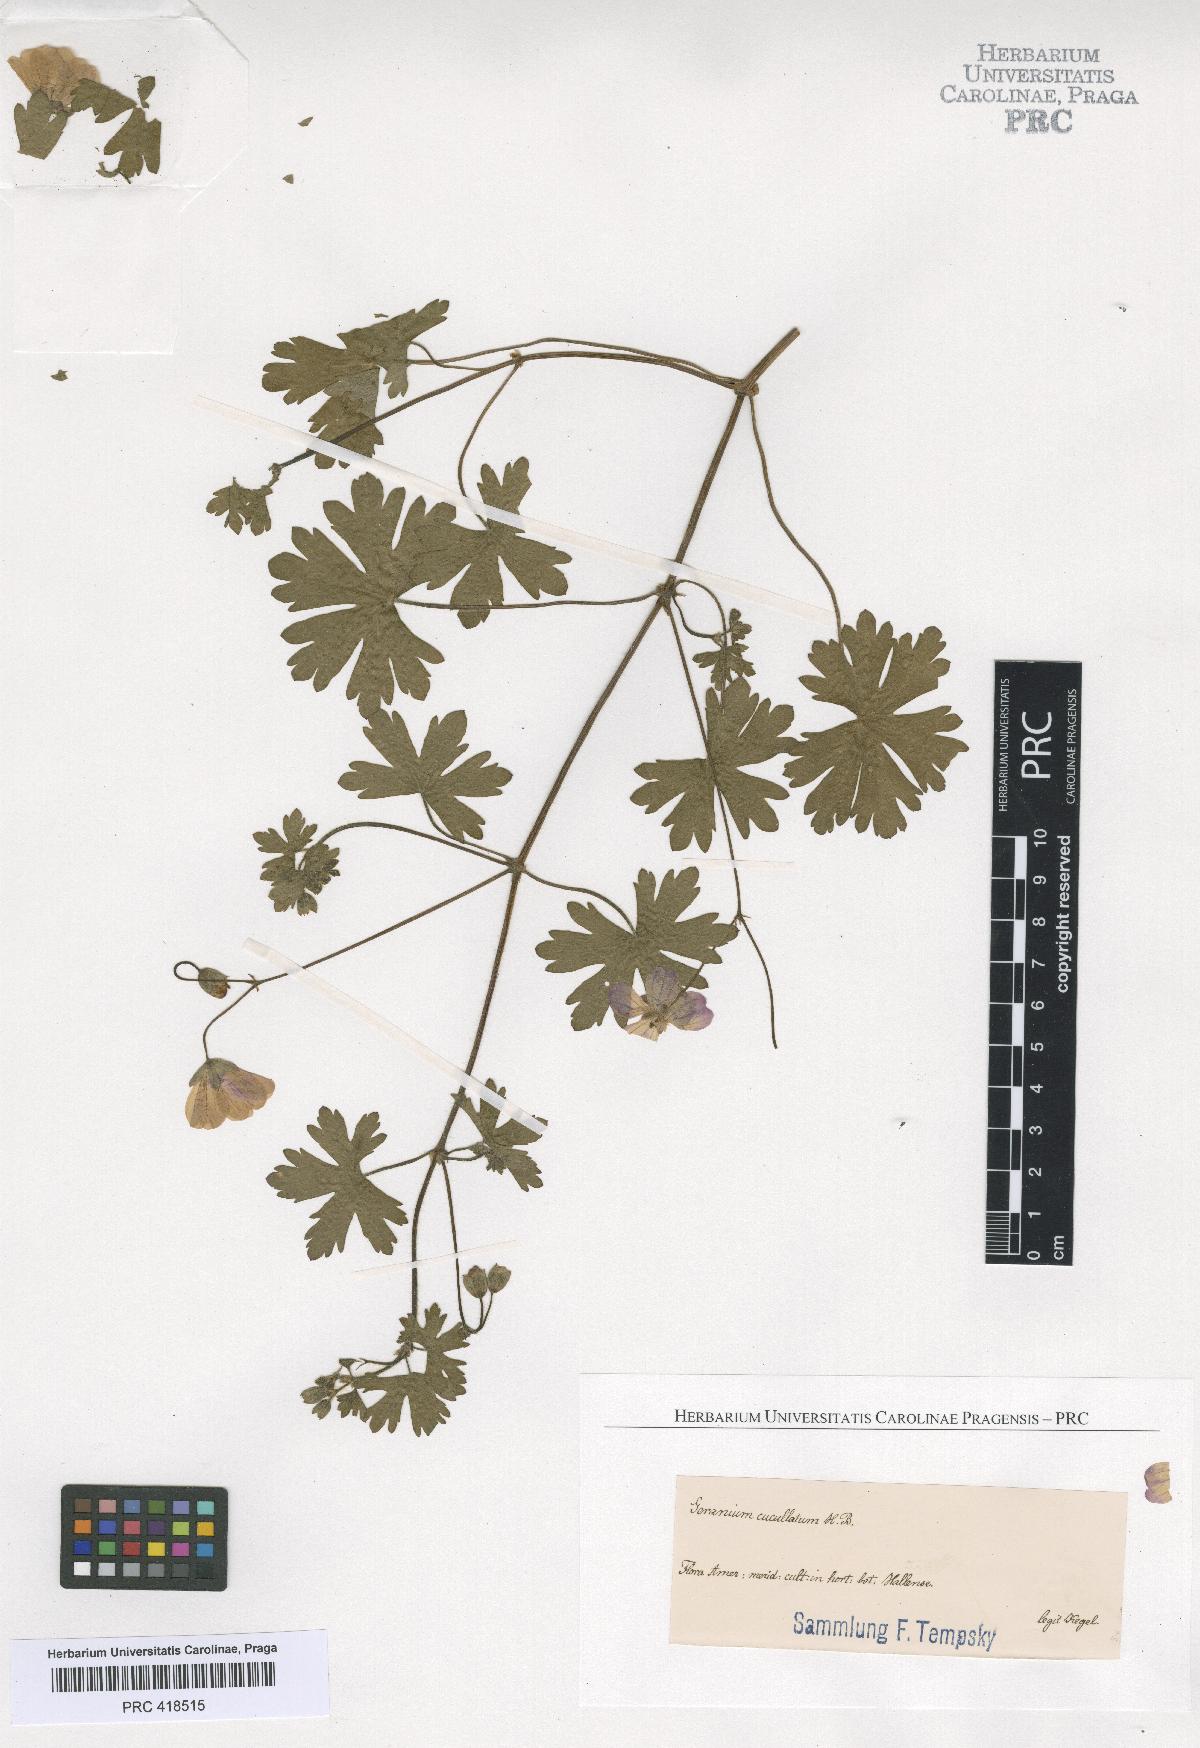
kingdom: Plantae
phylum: Tracheophyta
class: Magnoliopsida
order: Geraniales
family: Geraniaceae
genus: Geranium
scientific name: Geranium
